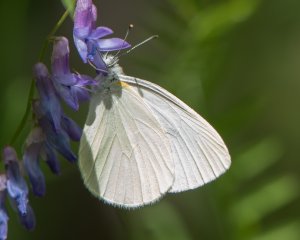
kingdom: Animalia
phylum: Arthropoda
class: Insecta
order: Lepidoptera
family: Pieridae
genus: Pieris
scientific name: Pieris oleracea
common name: Mustard White
